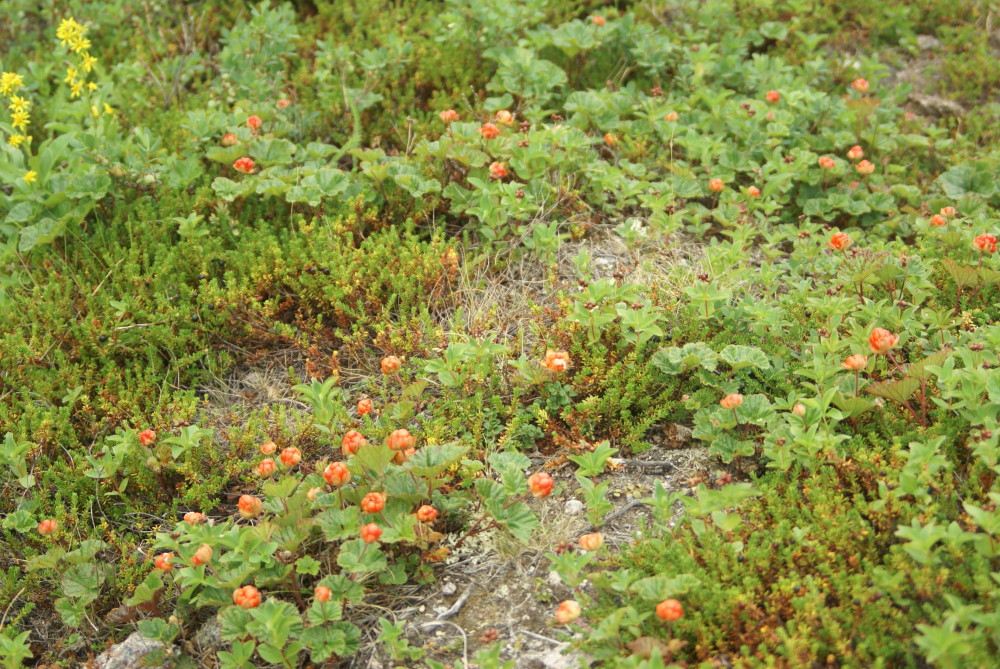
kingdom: Plantae
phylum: Tracheophyta
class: Magnoliopsida
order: Rosales
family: Rosaceae
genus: Rubus
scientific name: Rubus chamaemorus
